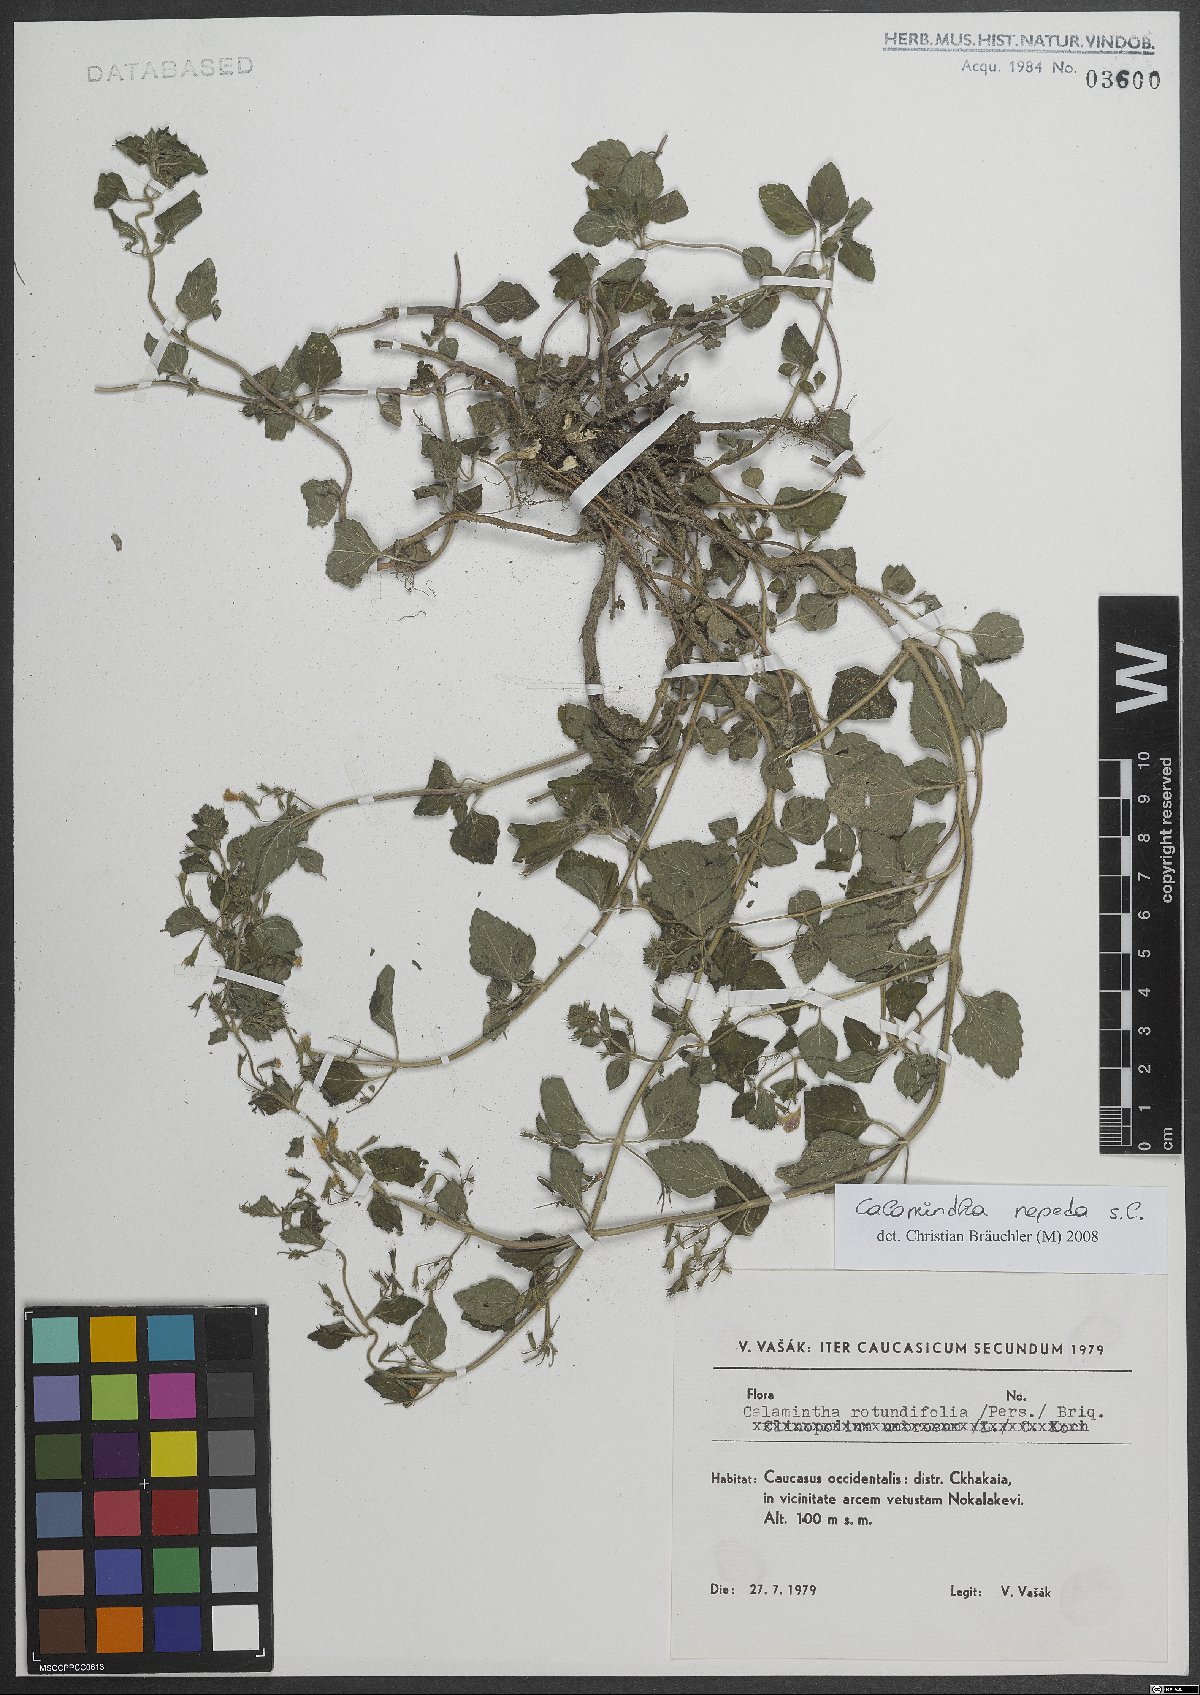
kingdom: Plantae
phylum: Tracheophyta
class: Magnoliopsida
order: Lamiales
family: Lamiaceae
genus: Clinopodium
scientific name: Clinopodium nepeta
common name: Lesser calamint
